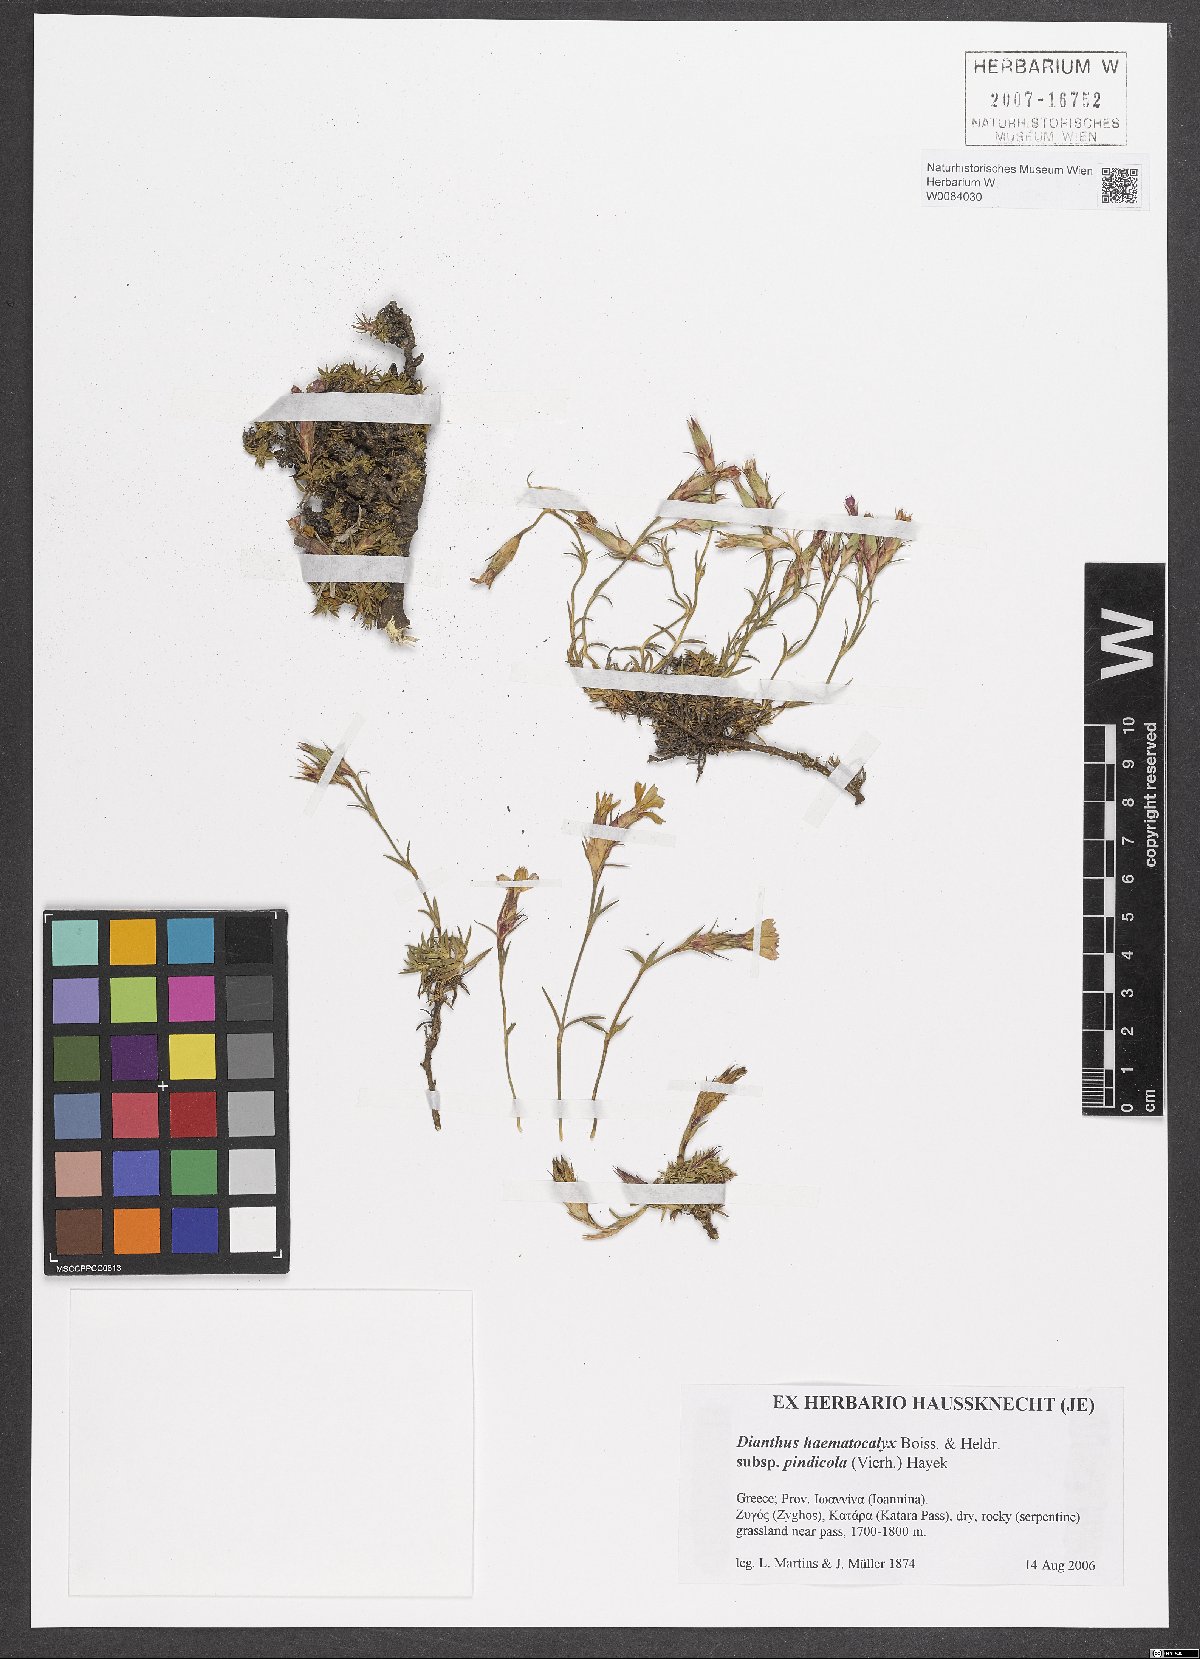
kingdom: Plantae
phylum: Tracheophyta
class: Magnoliopsida
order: Caryophyllales
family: Caryophyllaceae
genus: Dianthus
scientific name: Dianthus haematocalyx
